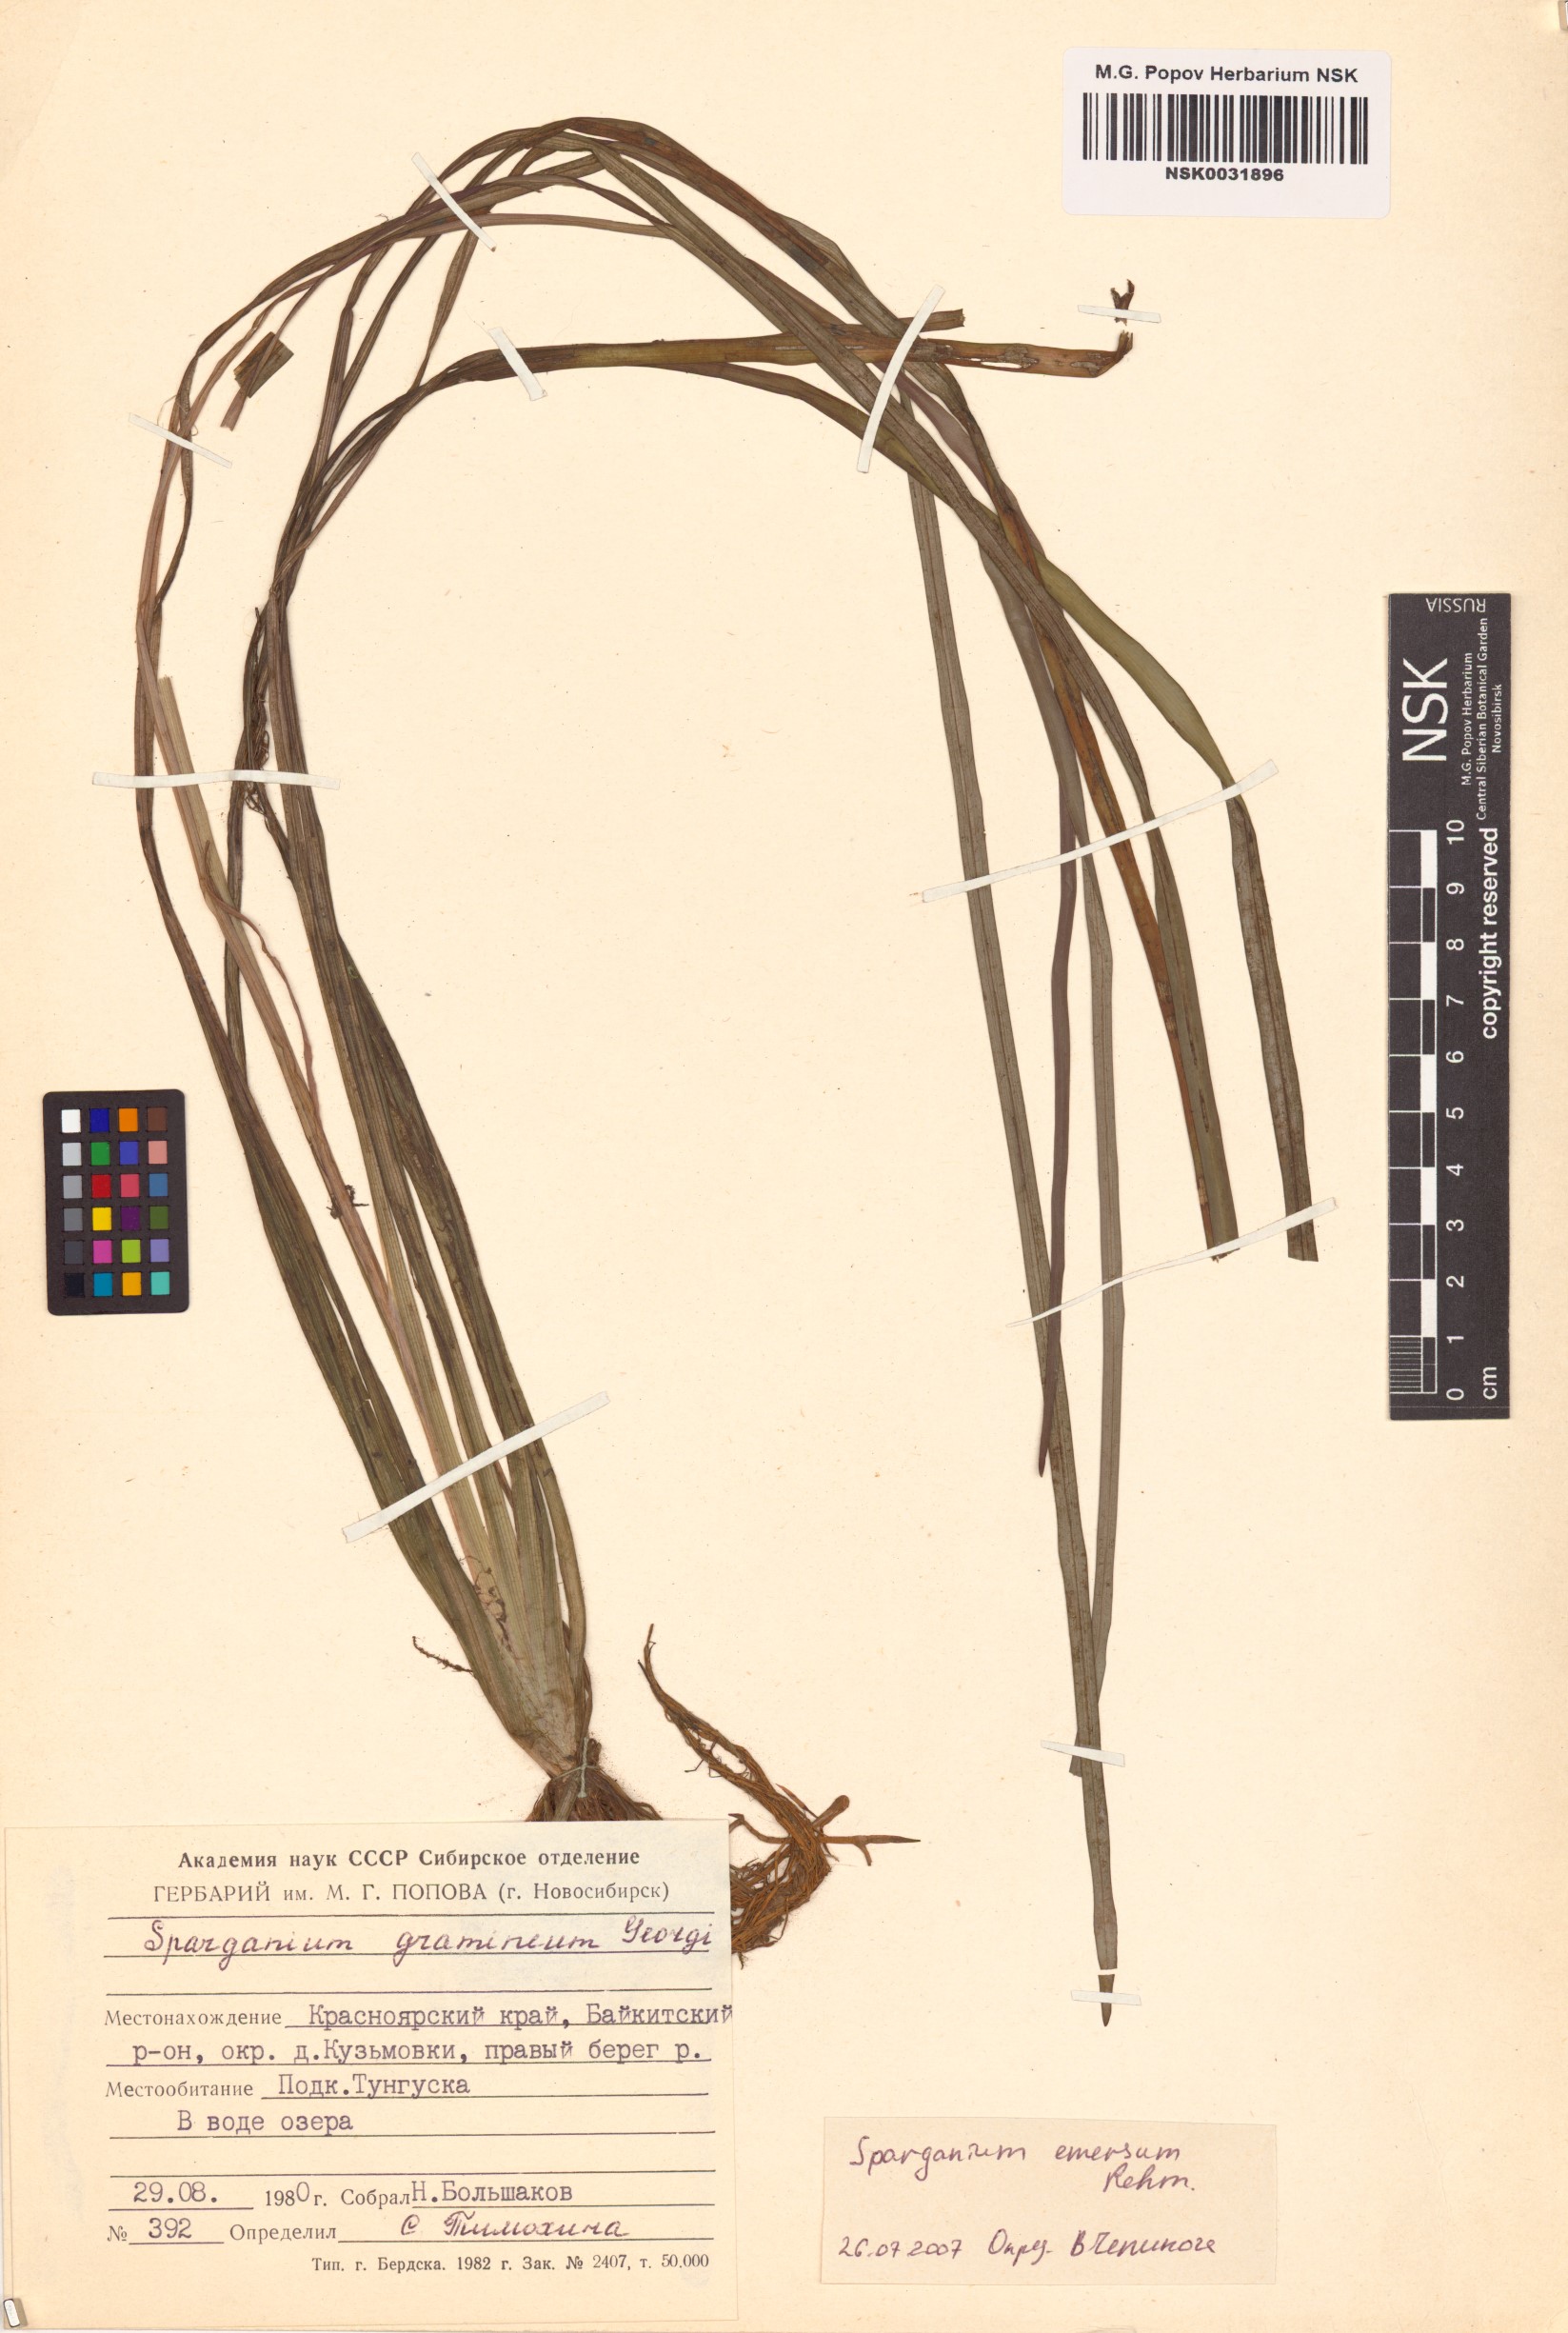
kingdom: Plantae
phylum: Tracheophyta
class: Liliopsida
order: Poales
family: Typhaceae
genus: Sparganium
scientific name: Sparganium emersum
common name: Unbranched bur-reed
